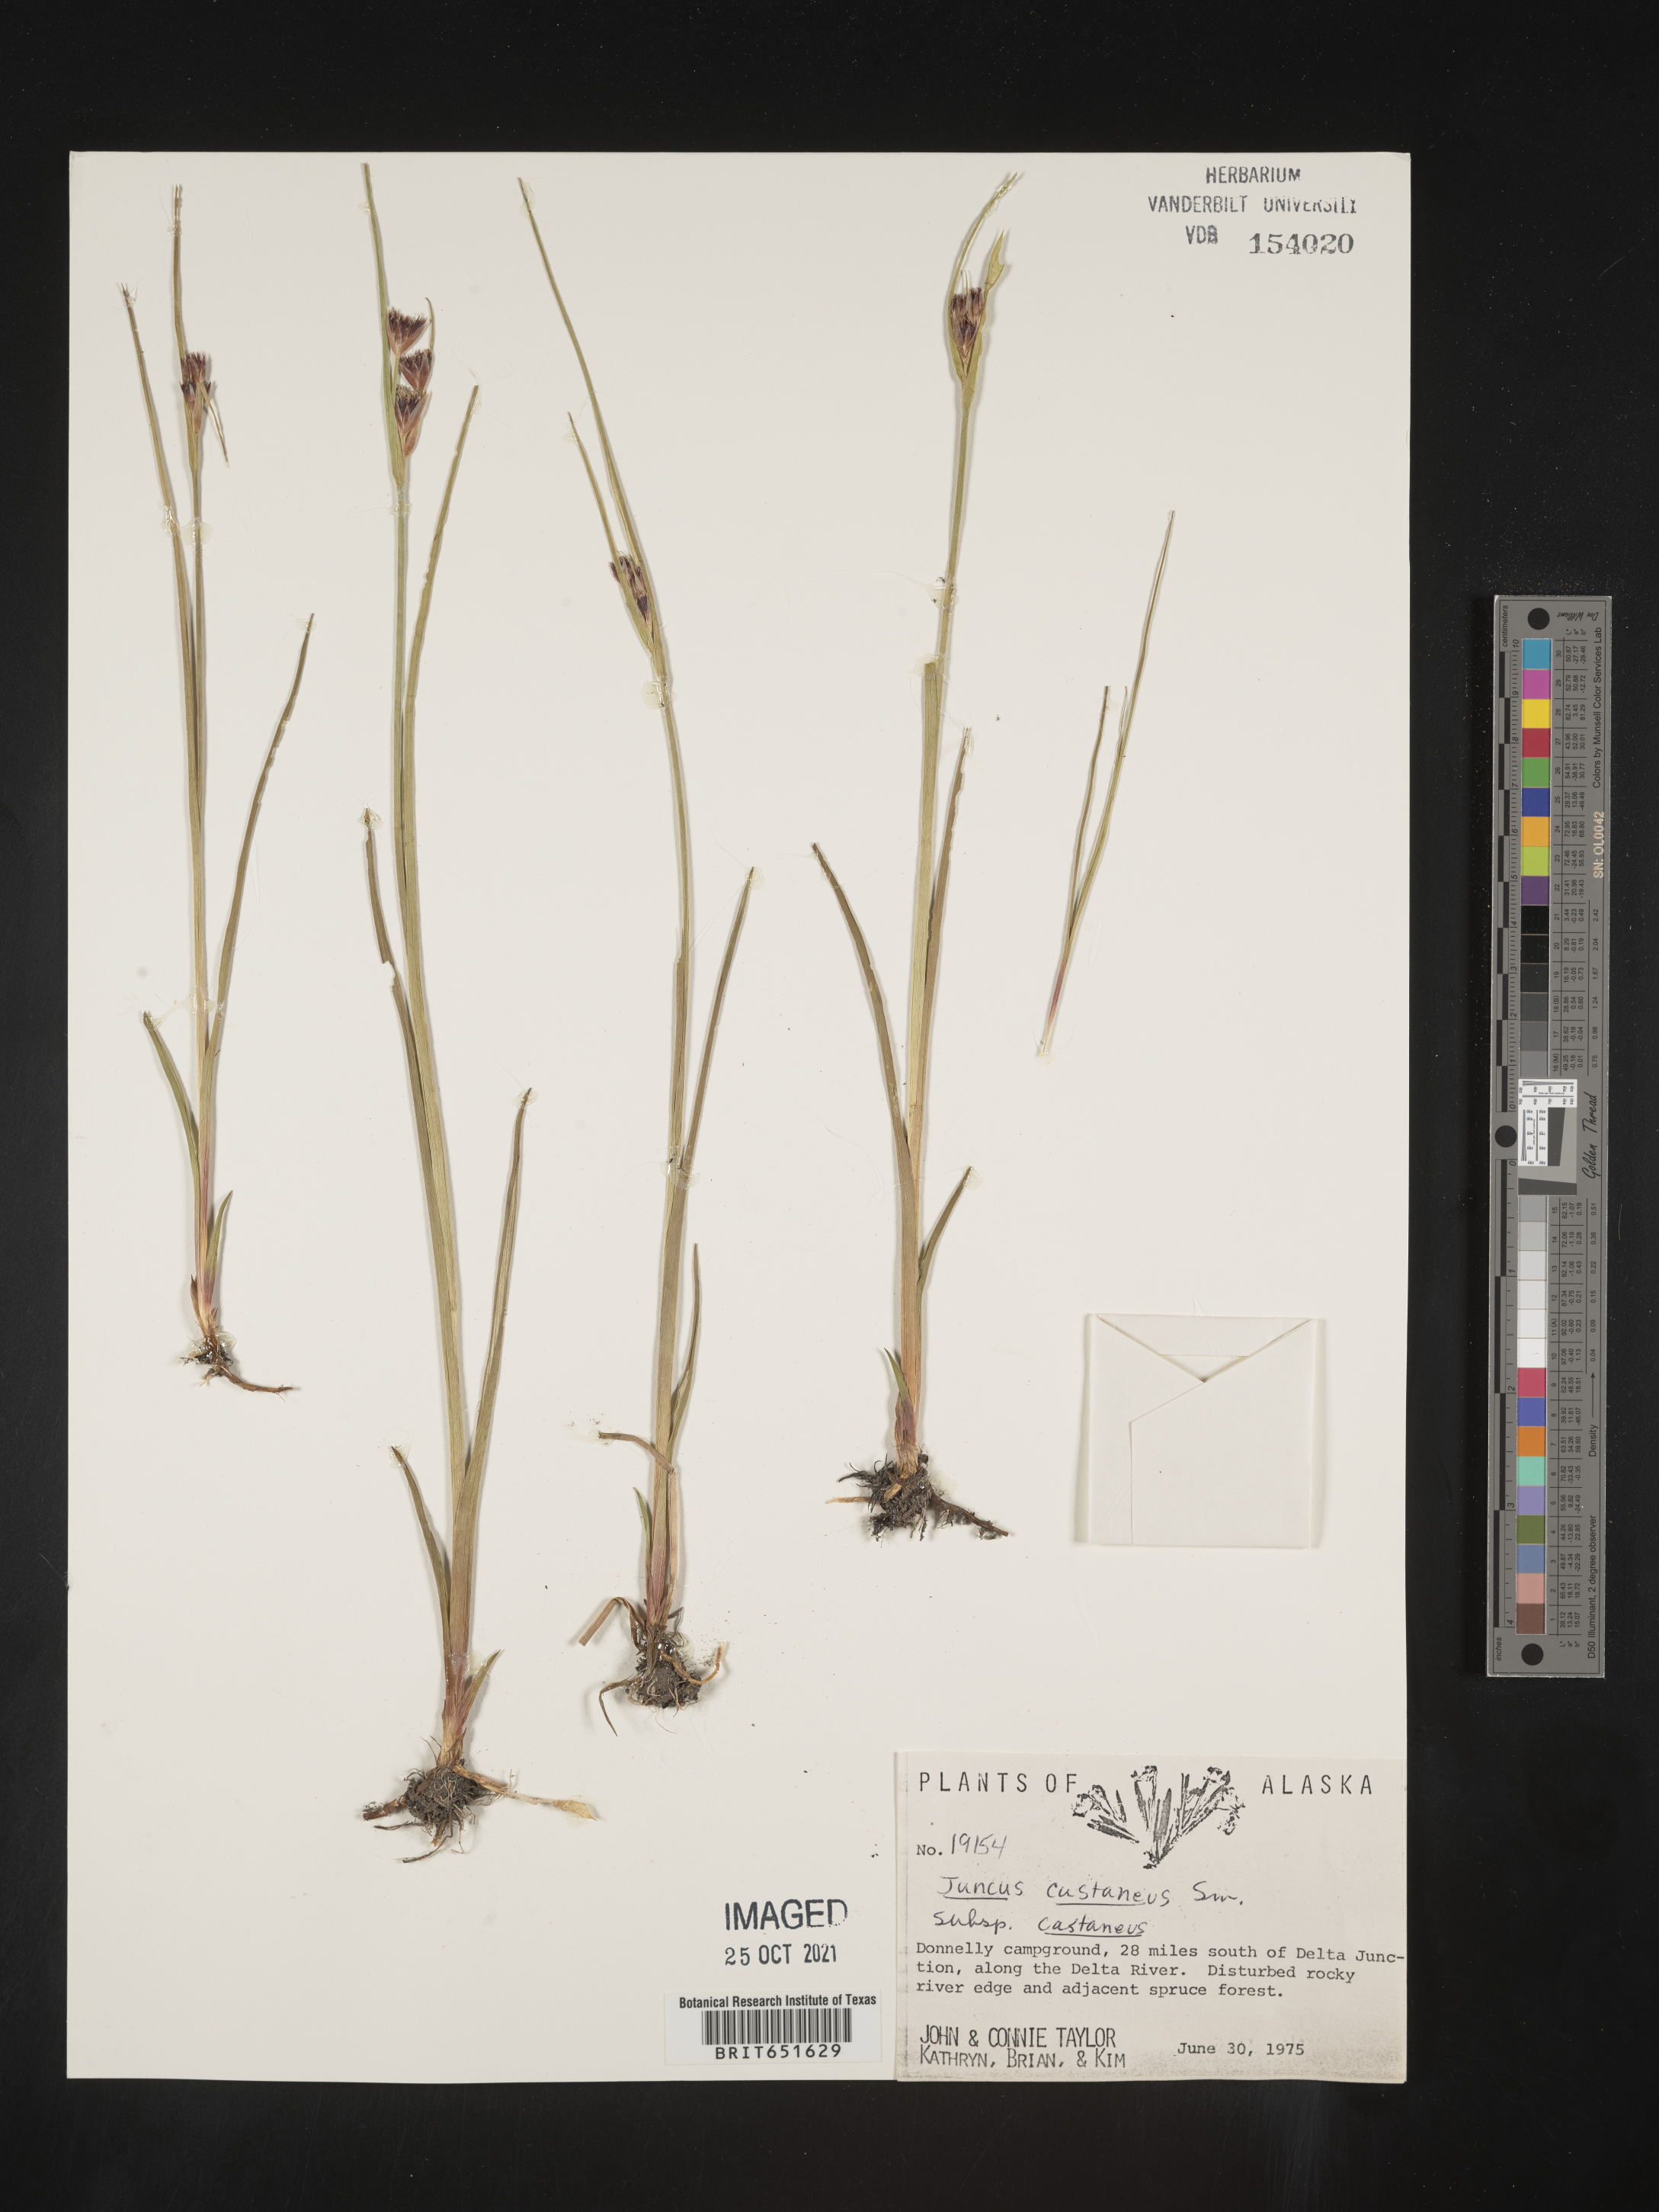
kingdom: Plantae
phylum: Tracheophyta
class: Liliopsida
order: Poales
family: Juncaceae
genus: Juncus
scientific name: Juncus castaneus
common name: Chestnut rush
